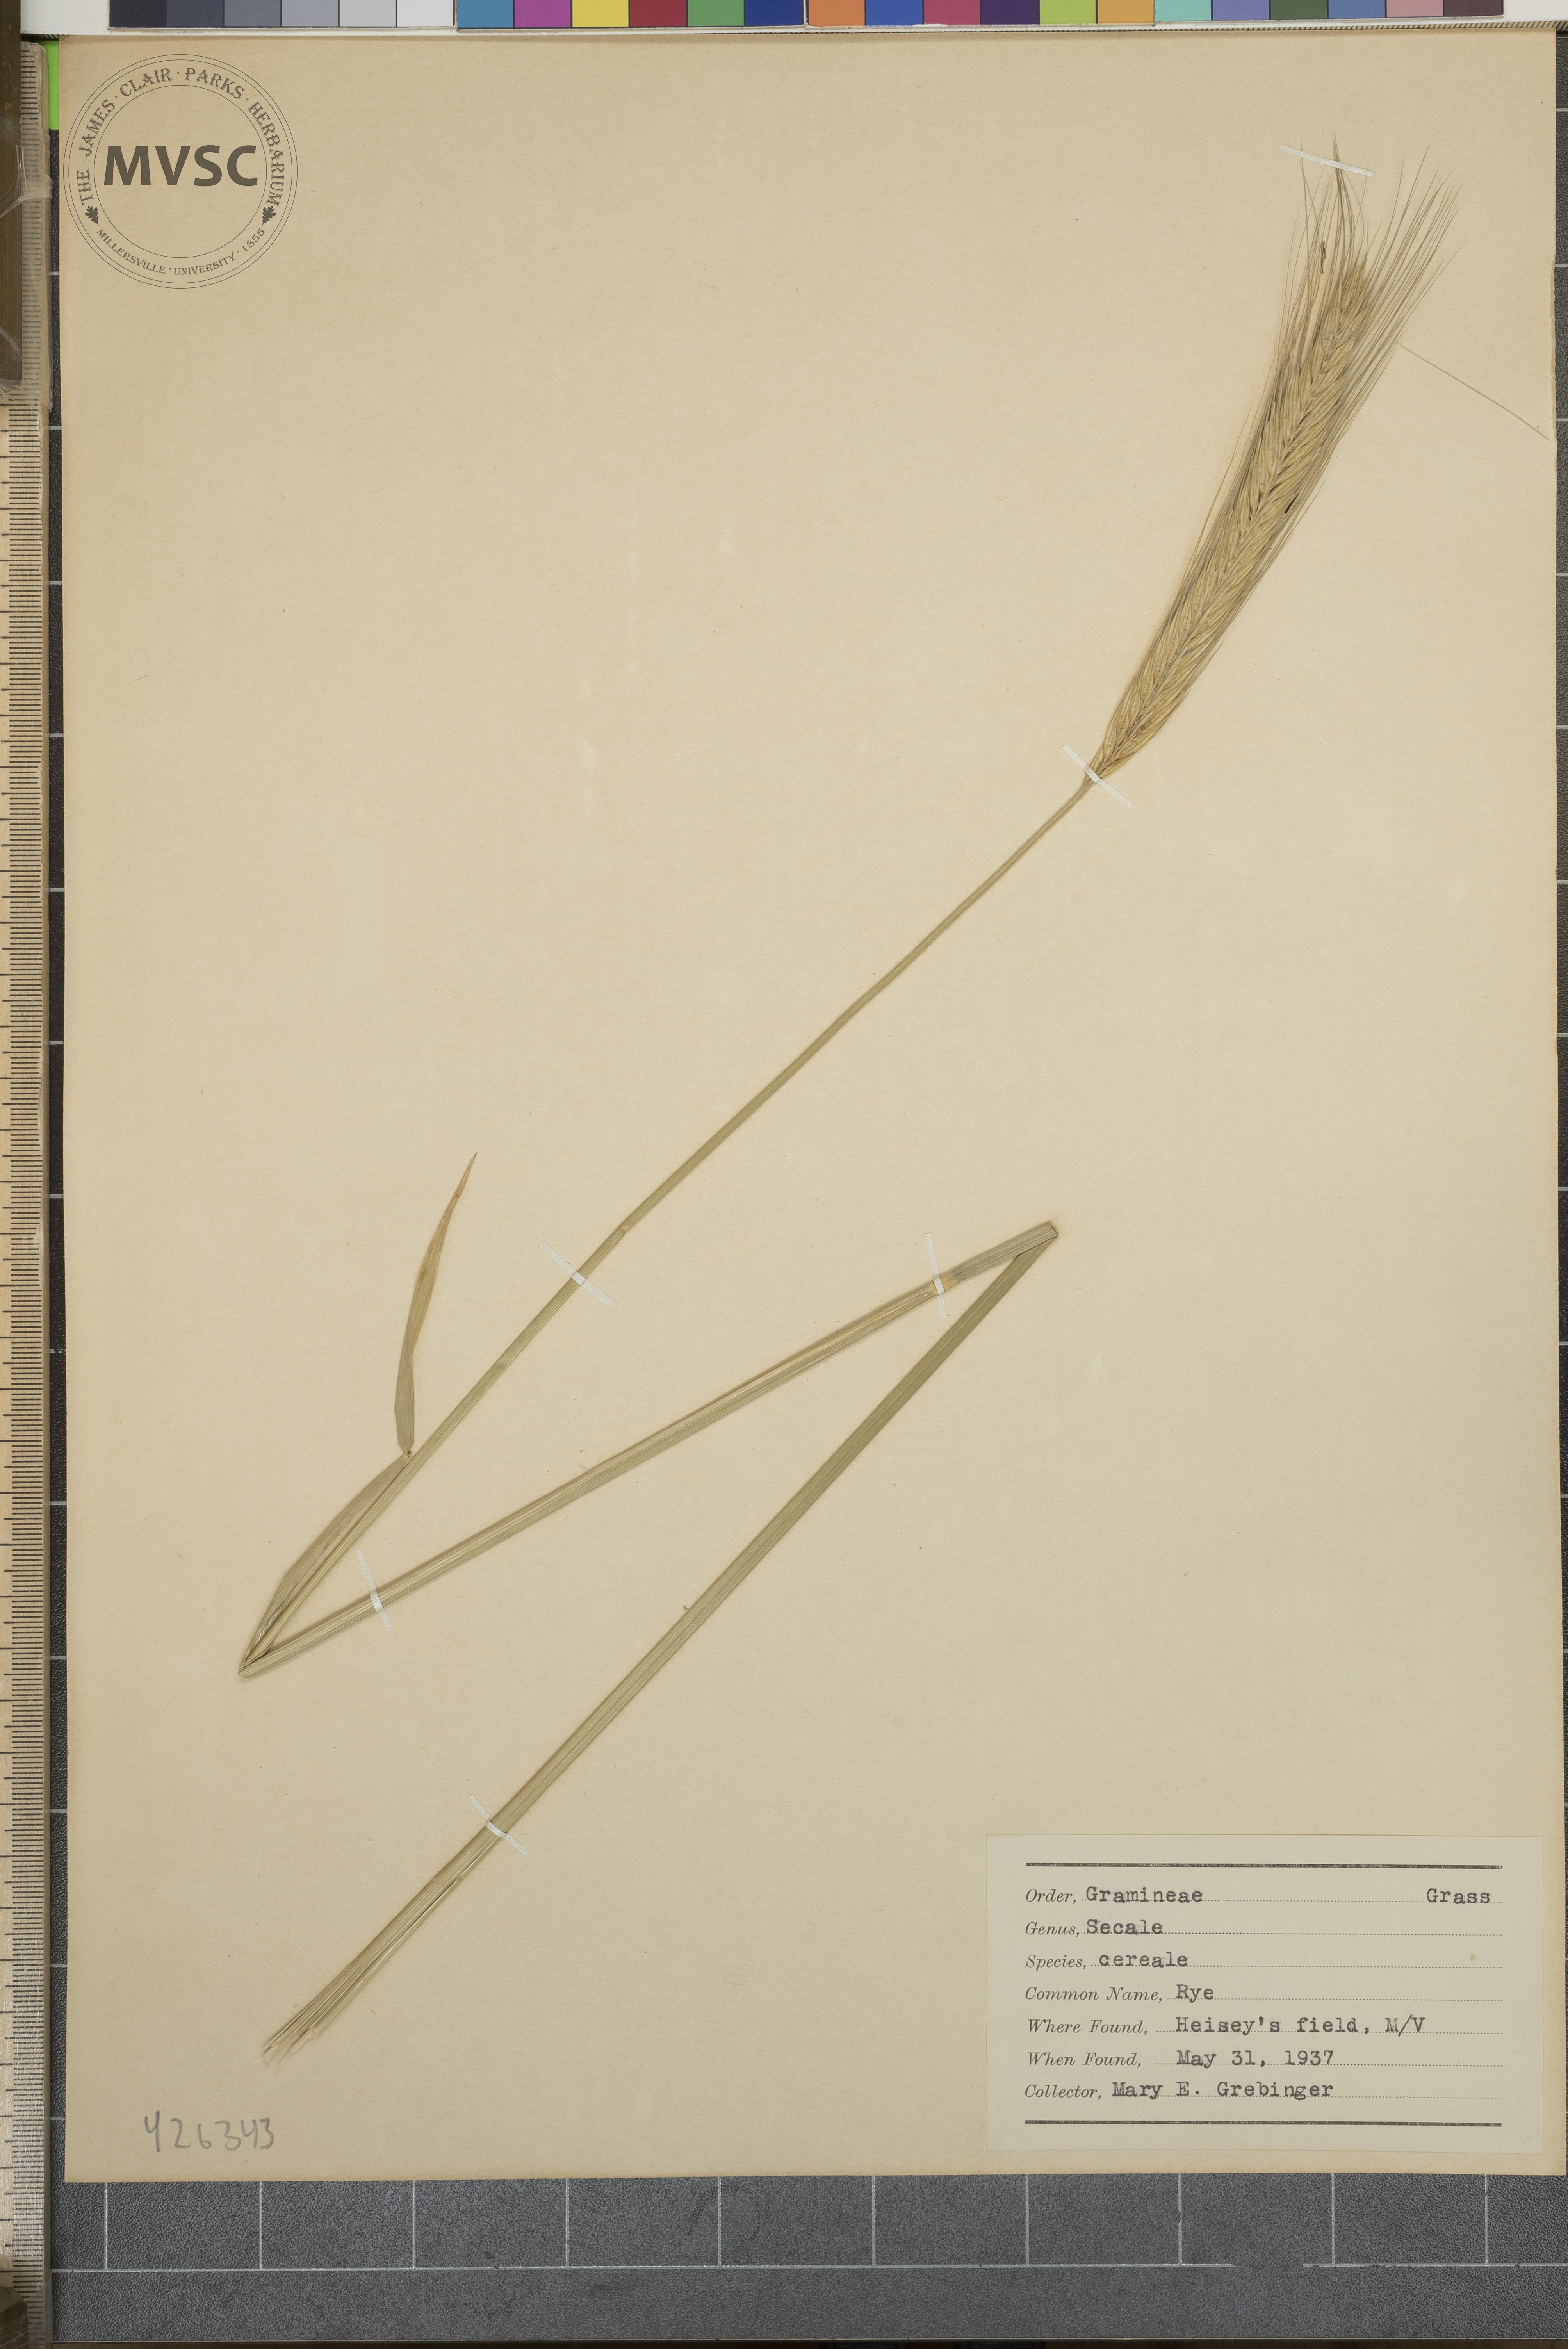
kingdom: Plantae
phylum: Tracheophyta
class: Liliopsida
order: Poales
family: Poaceae
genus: Secale
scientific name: Secale cereale
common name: Rye
